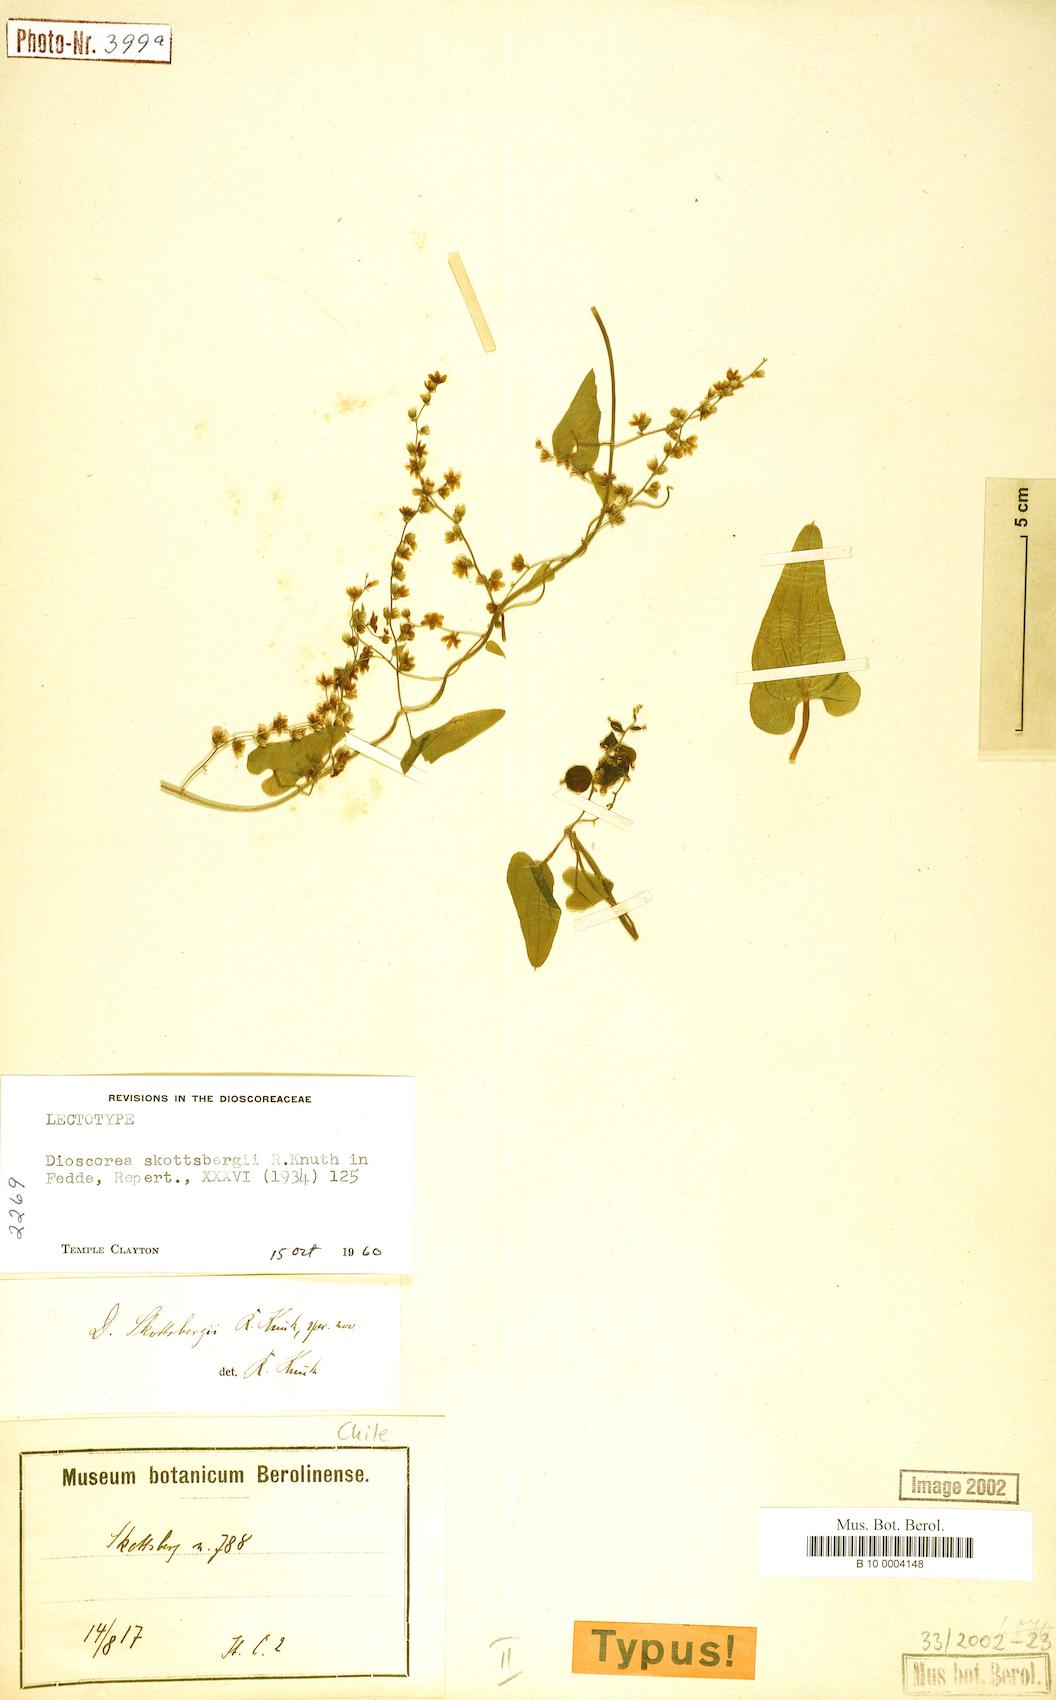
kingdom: Plantae
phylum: Tracheophyta
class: Liliopsida
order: Dioscoreales
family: Dioscoreaceae
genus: Dioscorea
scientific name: Dioscorea skottsbergii
